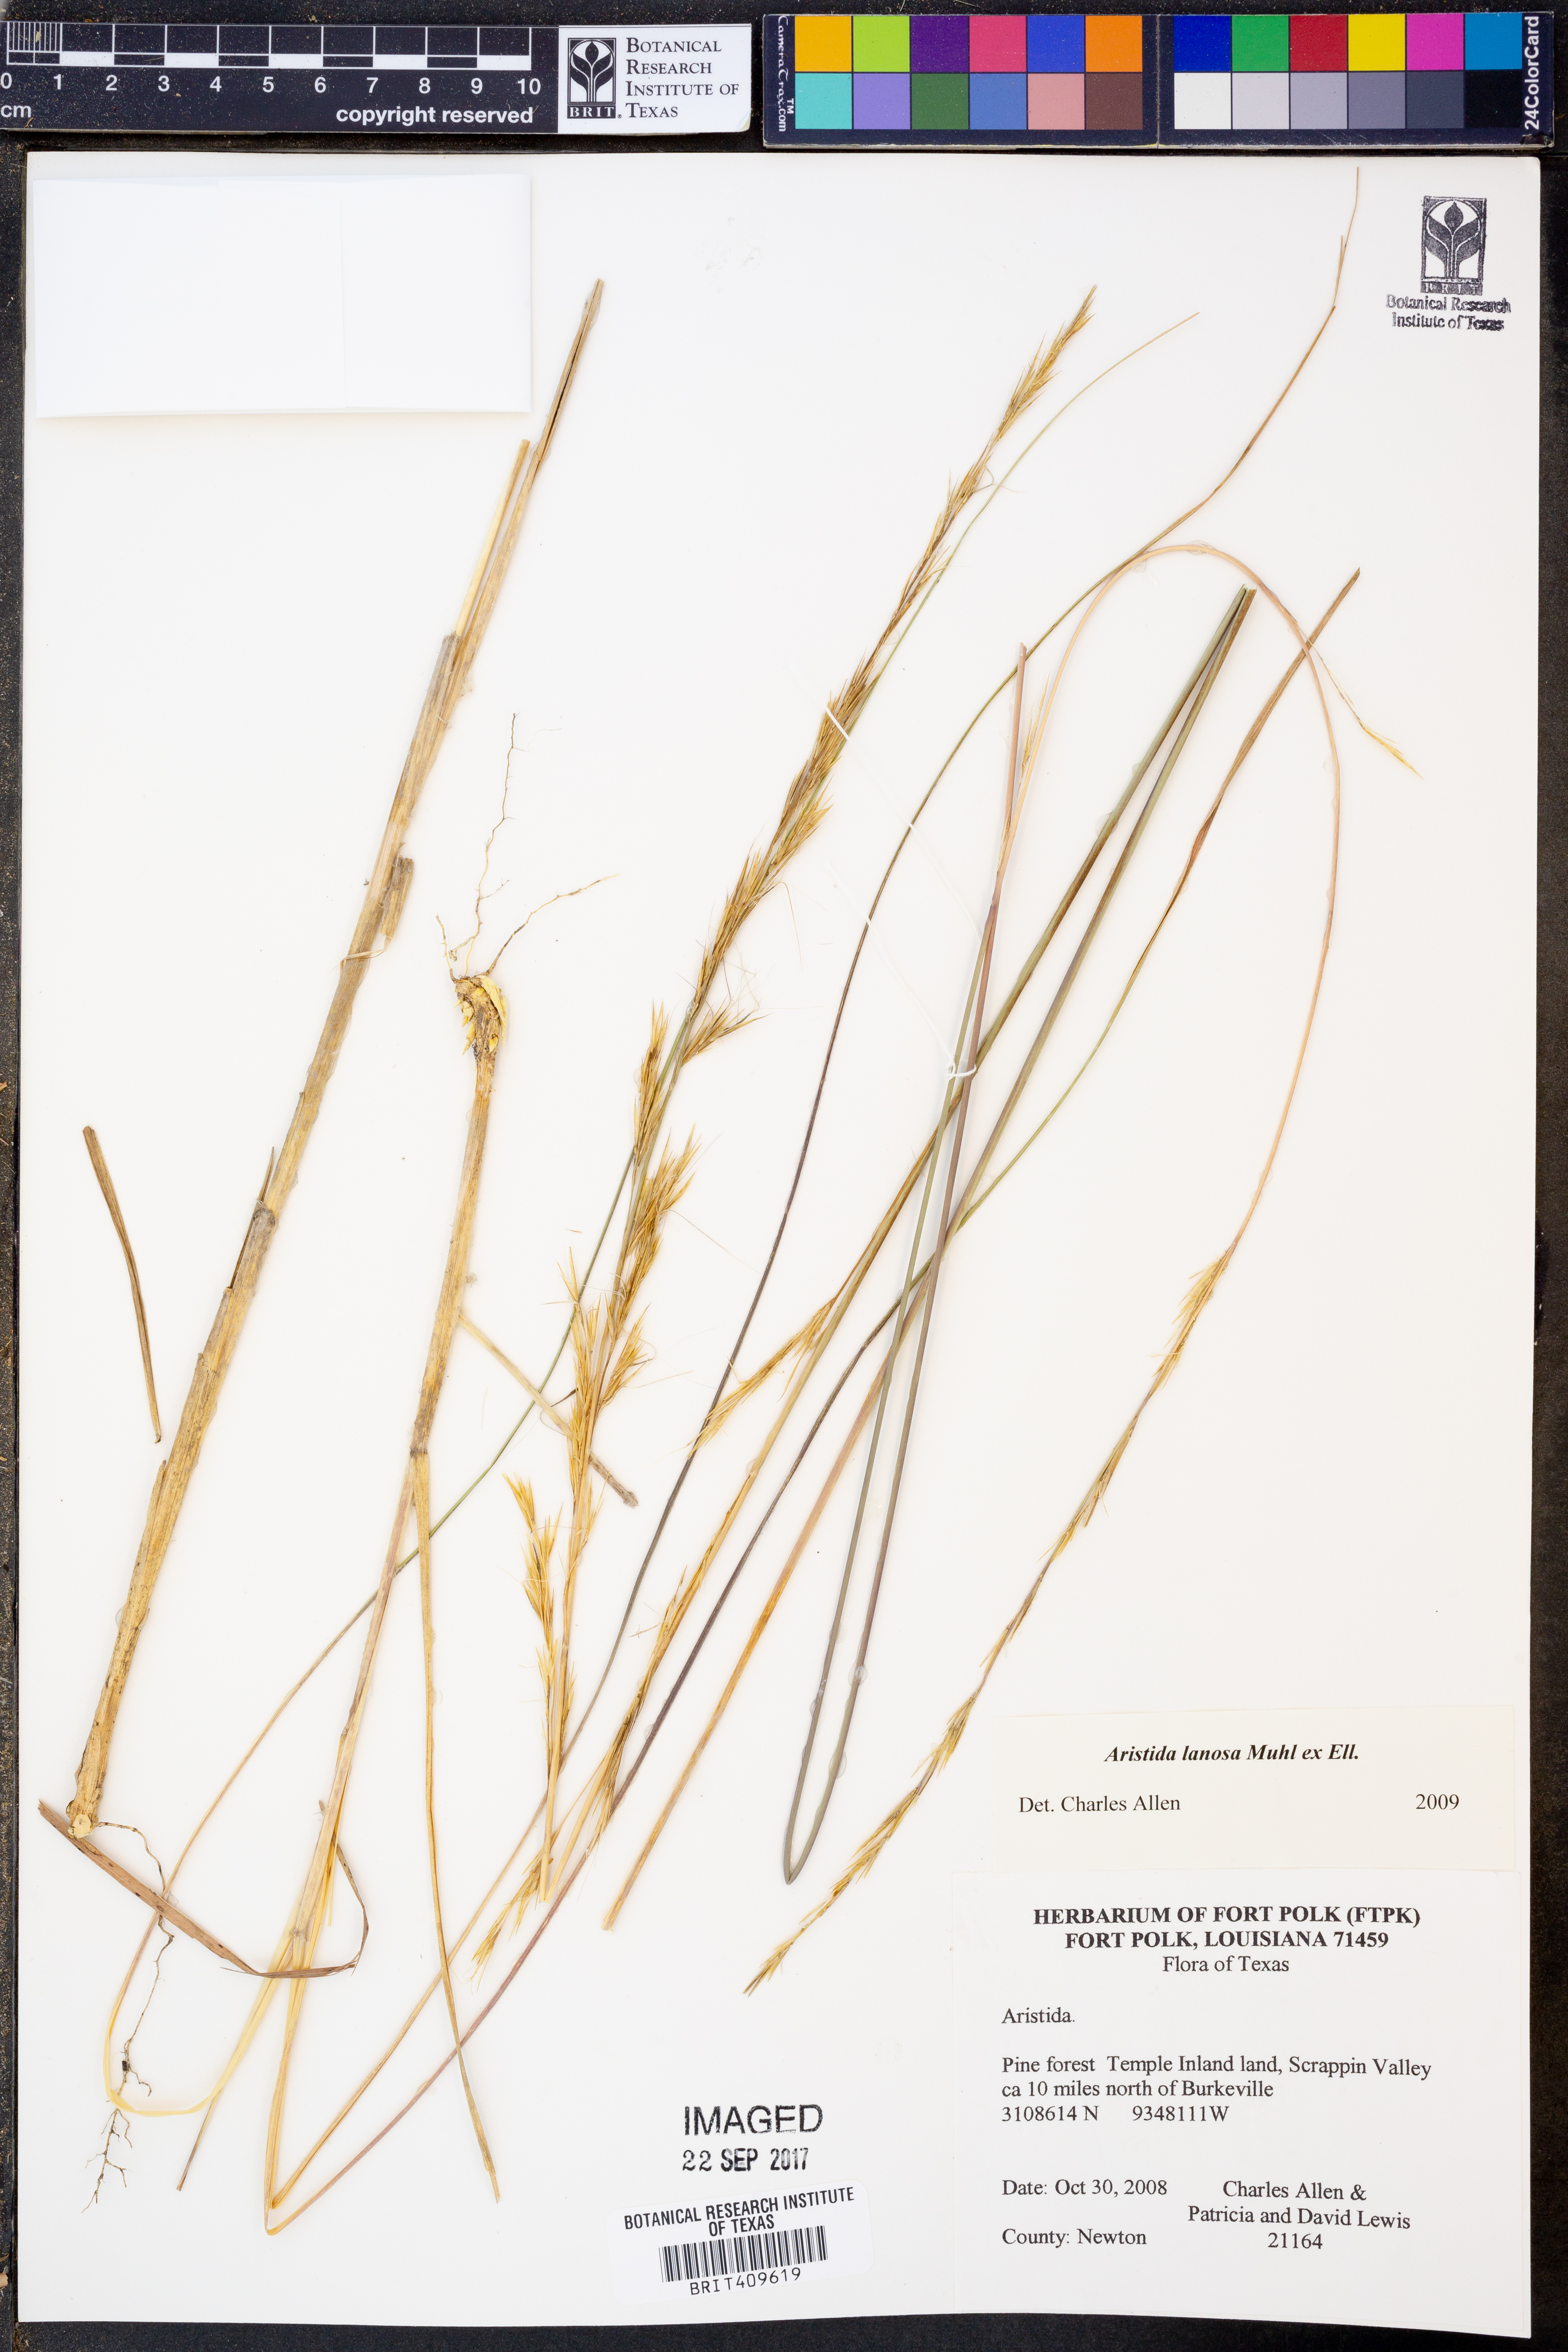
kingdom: Plantae
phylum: Tracheophyta
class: Liliopsida
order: Poales
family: Poaceae
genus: Aristida
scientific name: Aristida lanosa
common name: Woolly three-awn
